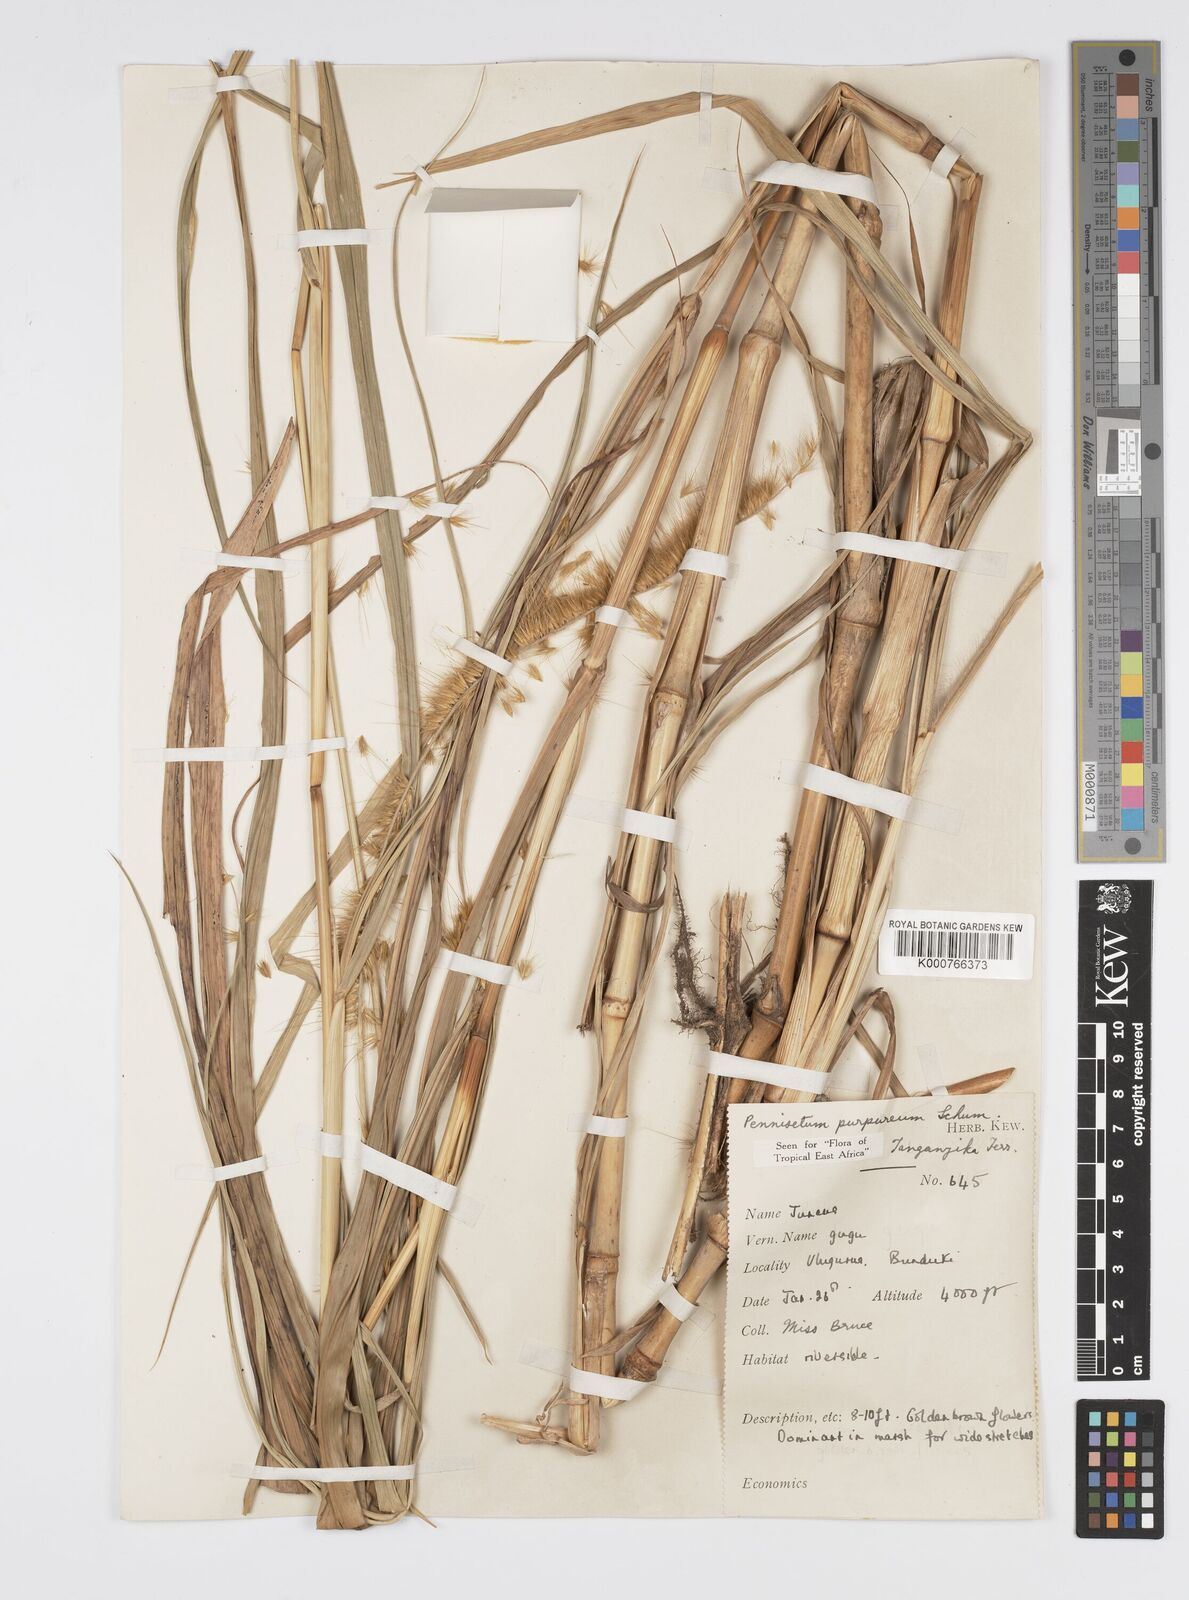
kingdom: Plantae
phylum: Tracheophyta
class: Liliopsida
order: Poales
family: Poaceae
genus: Cenchrus
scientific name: Cenchrus purpureus
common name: Elephant grass
